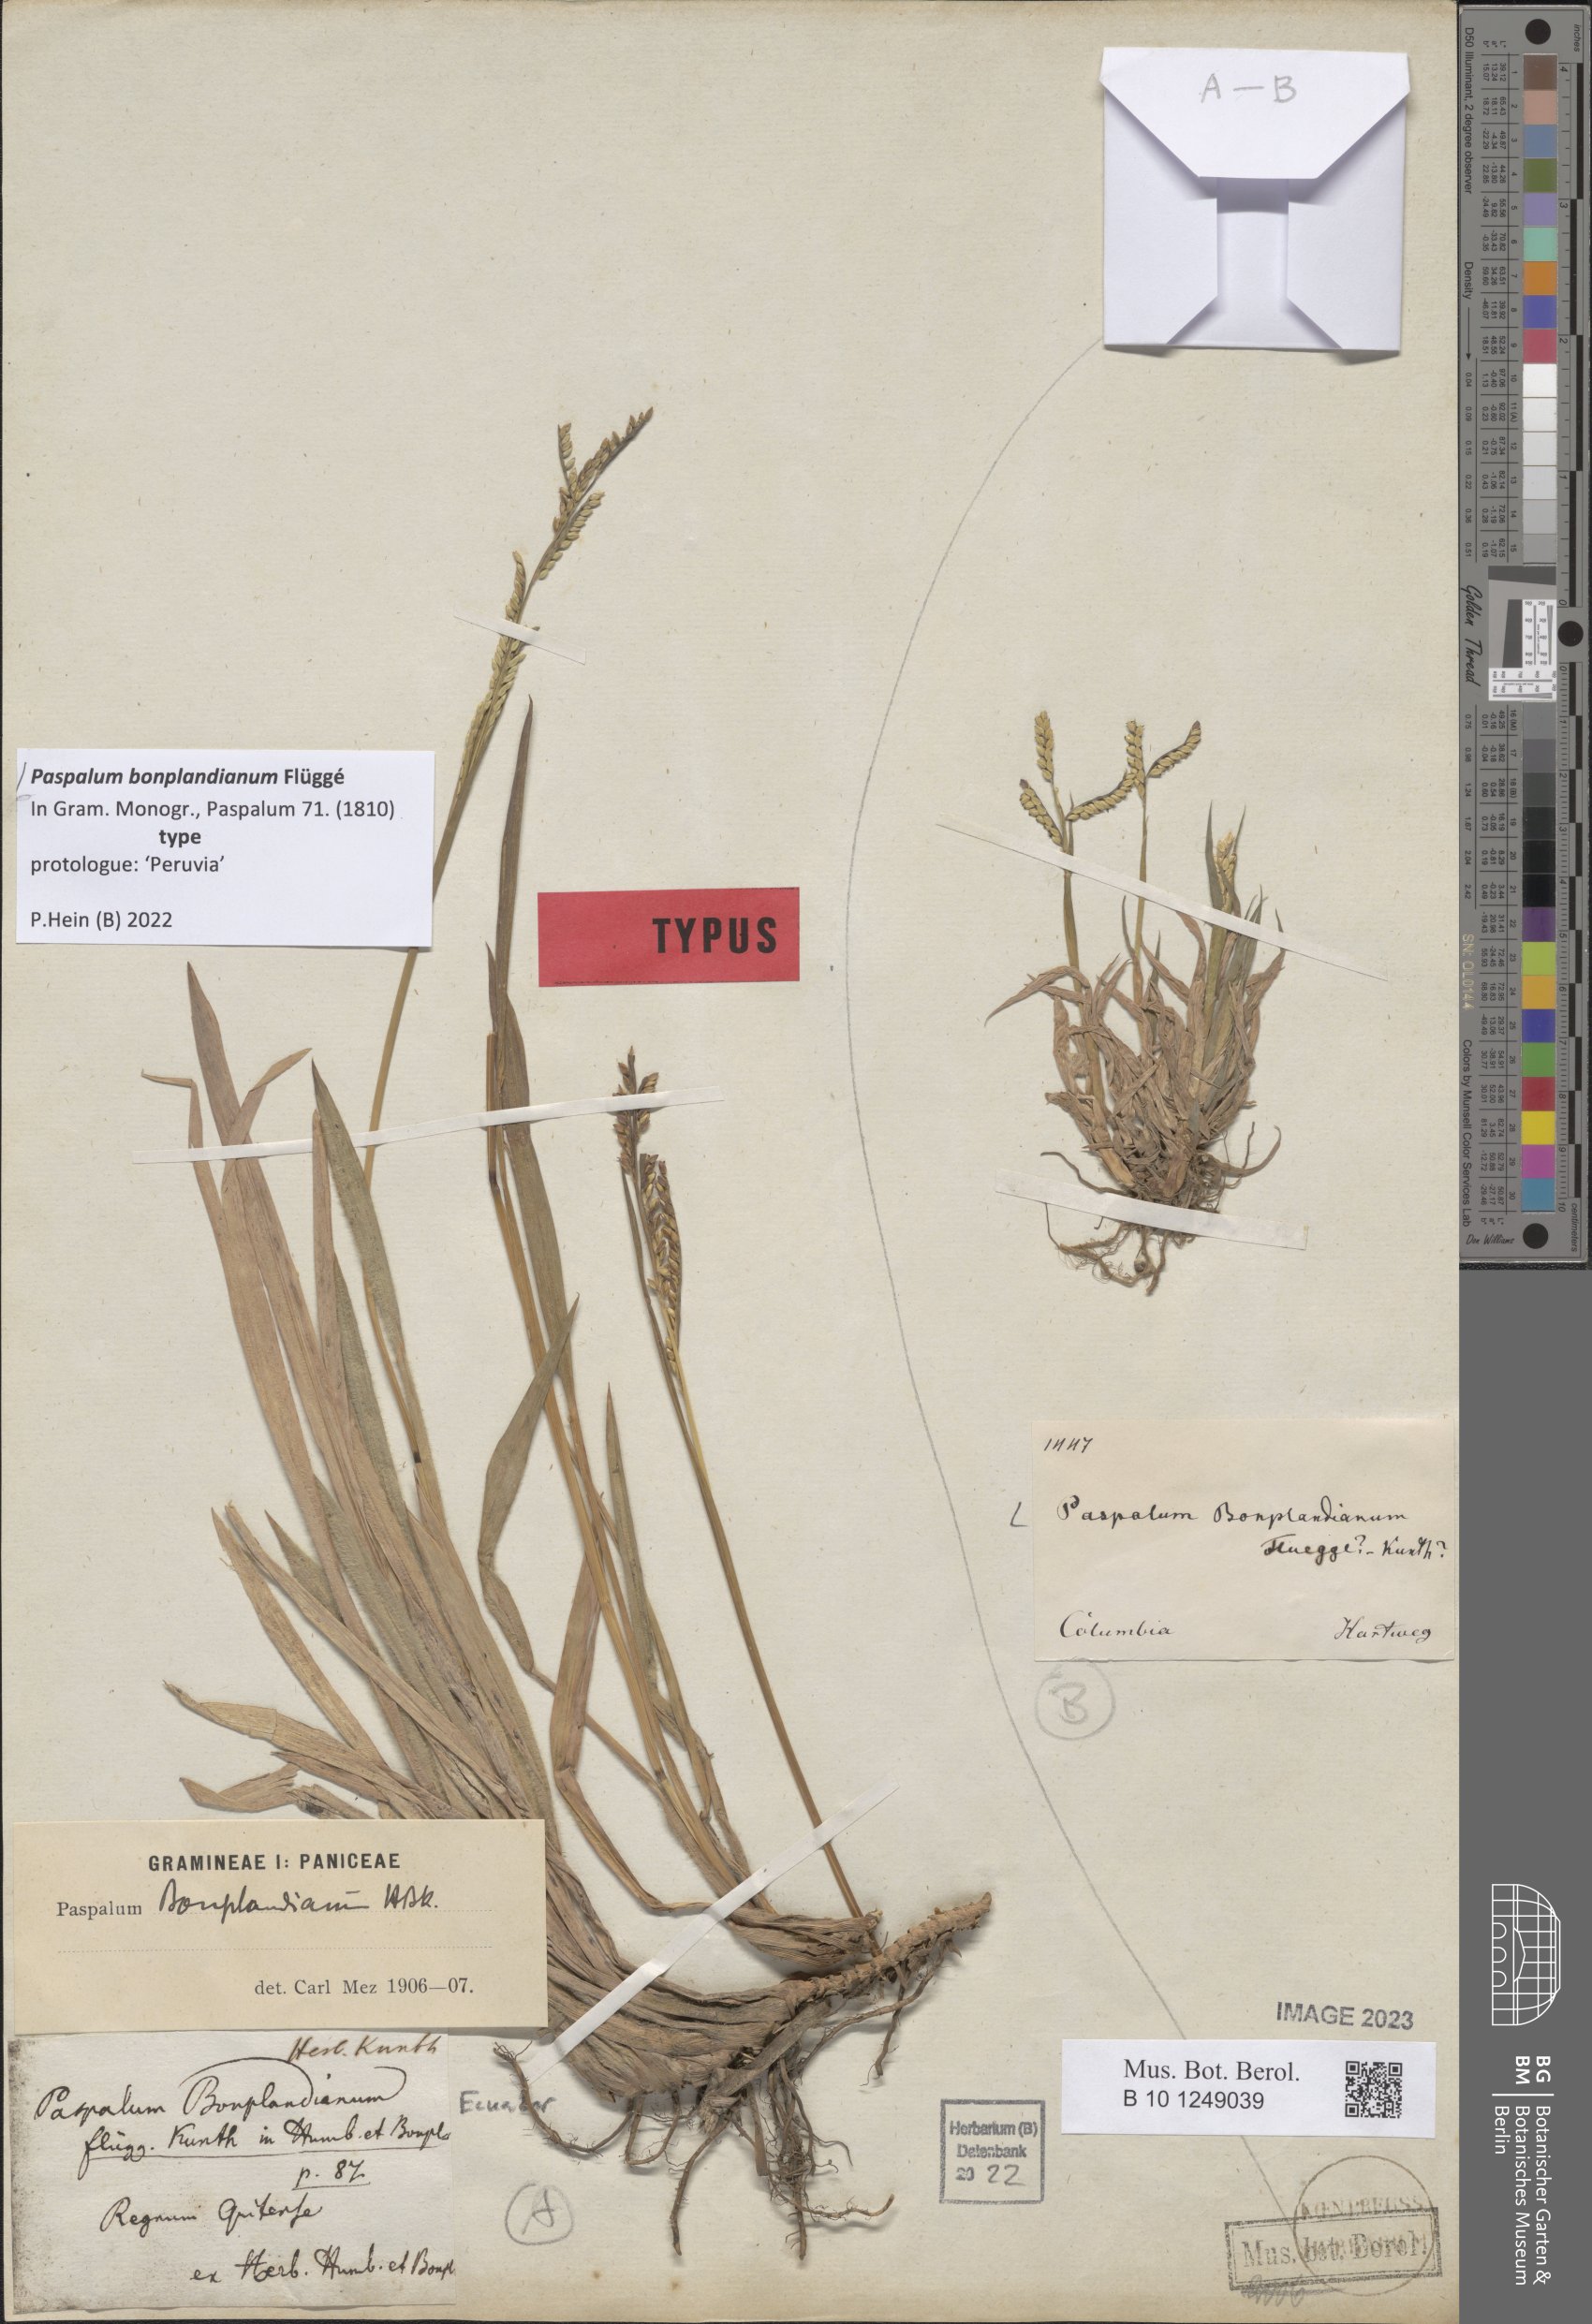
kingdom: Plantae
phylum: Tracheophyta
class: Liliopsida
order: Poales
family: Poaceae
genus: Paspalum
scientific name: Paspalum bonplandianum
